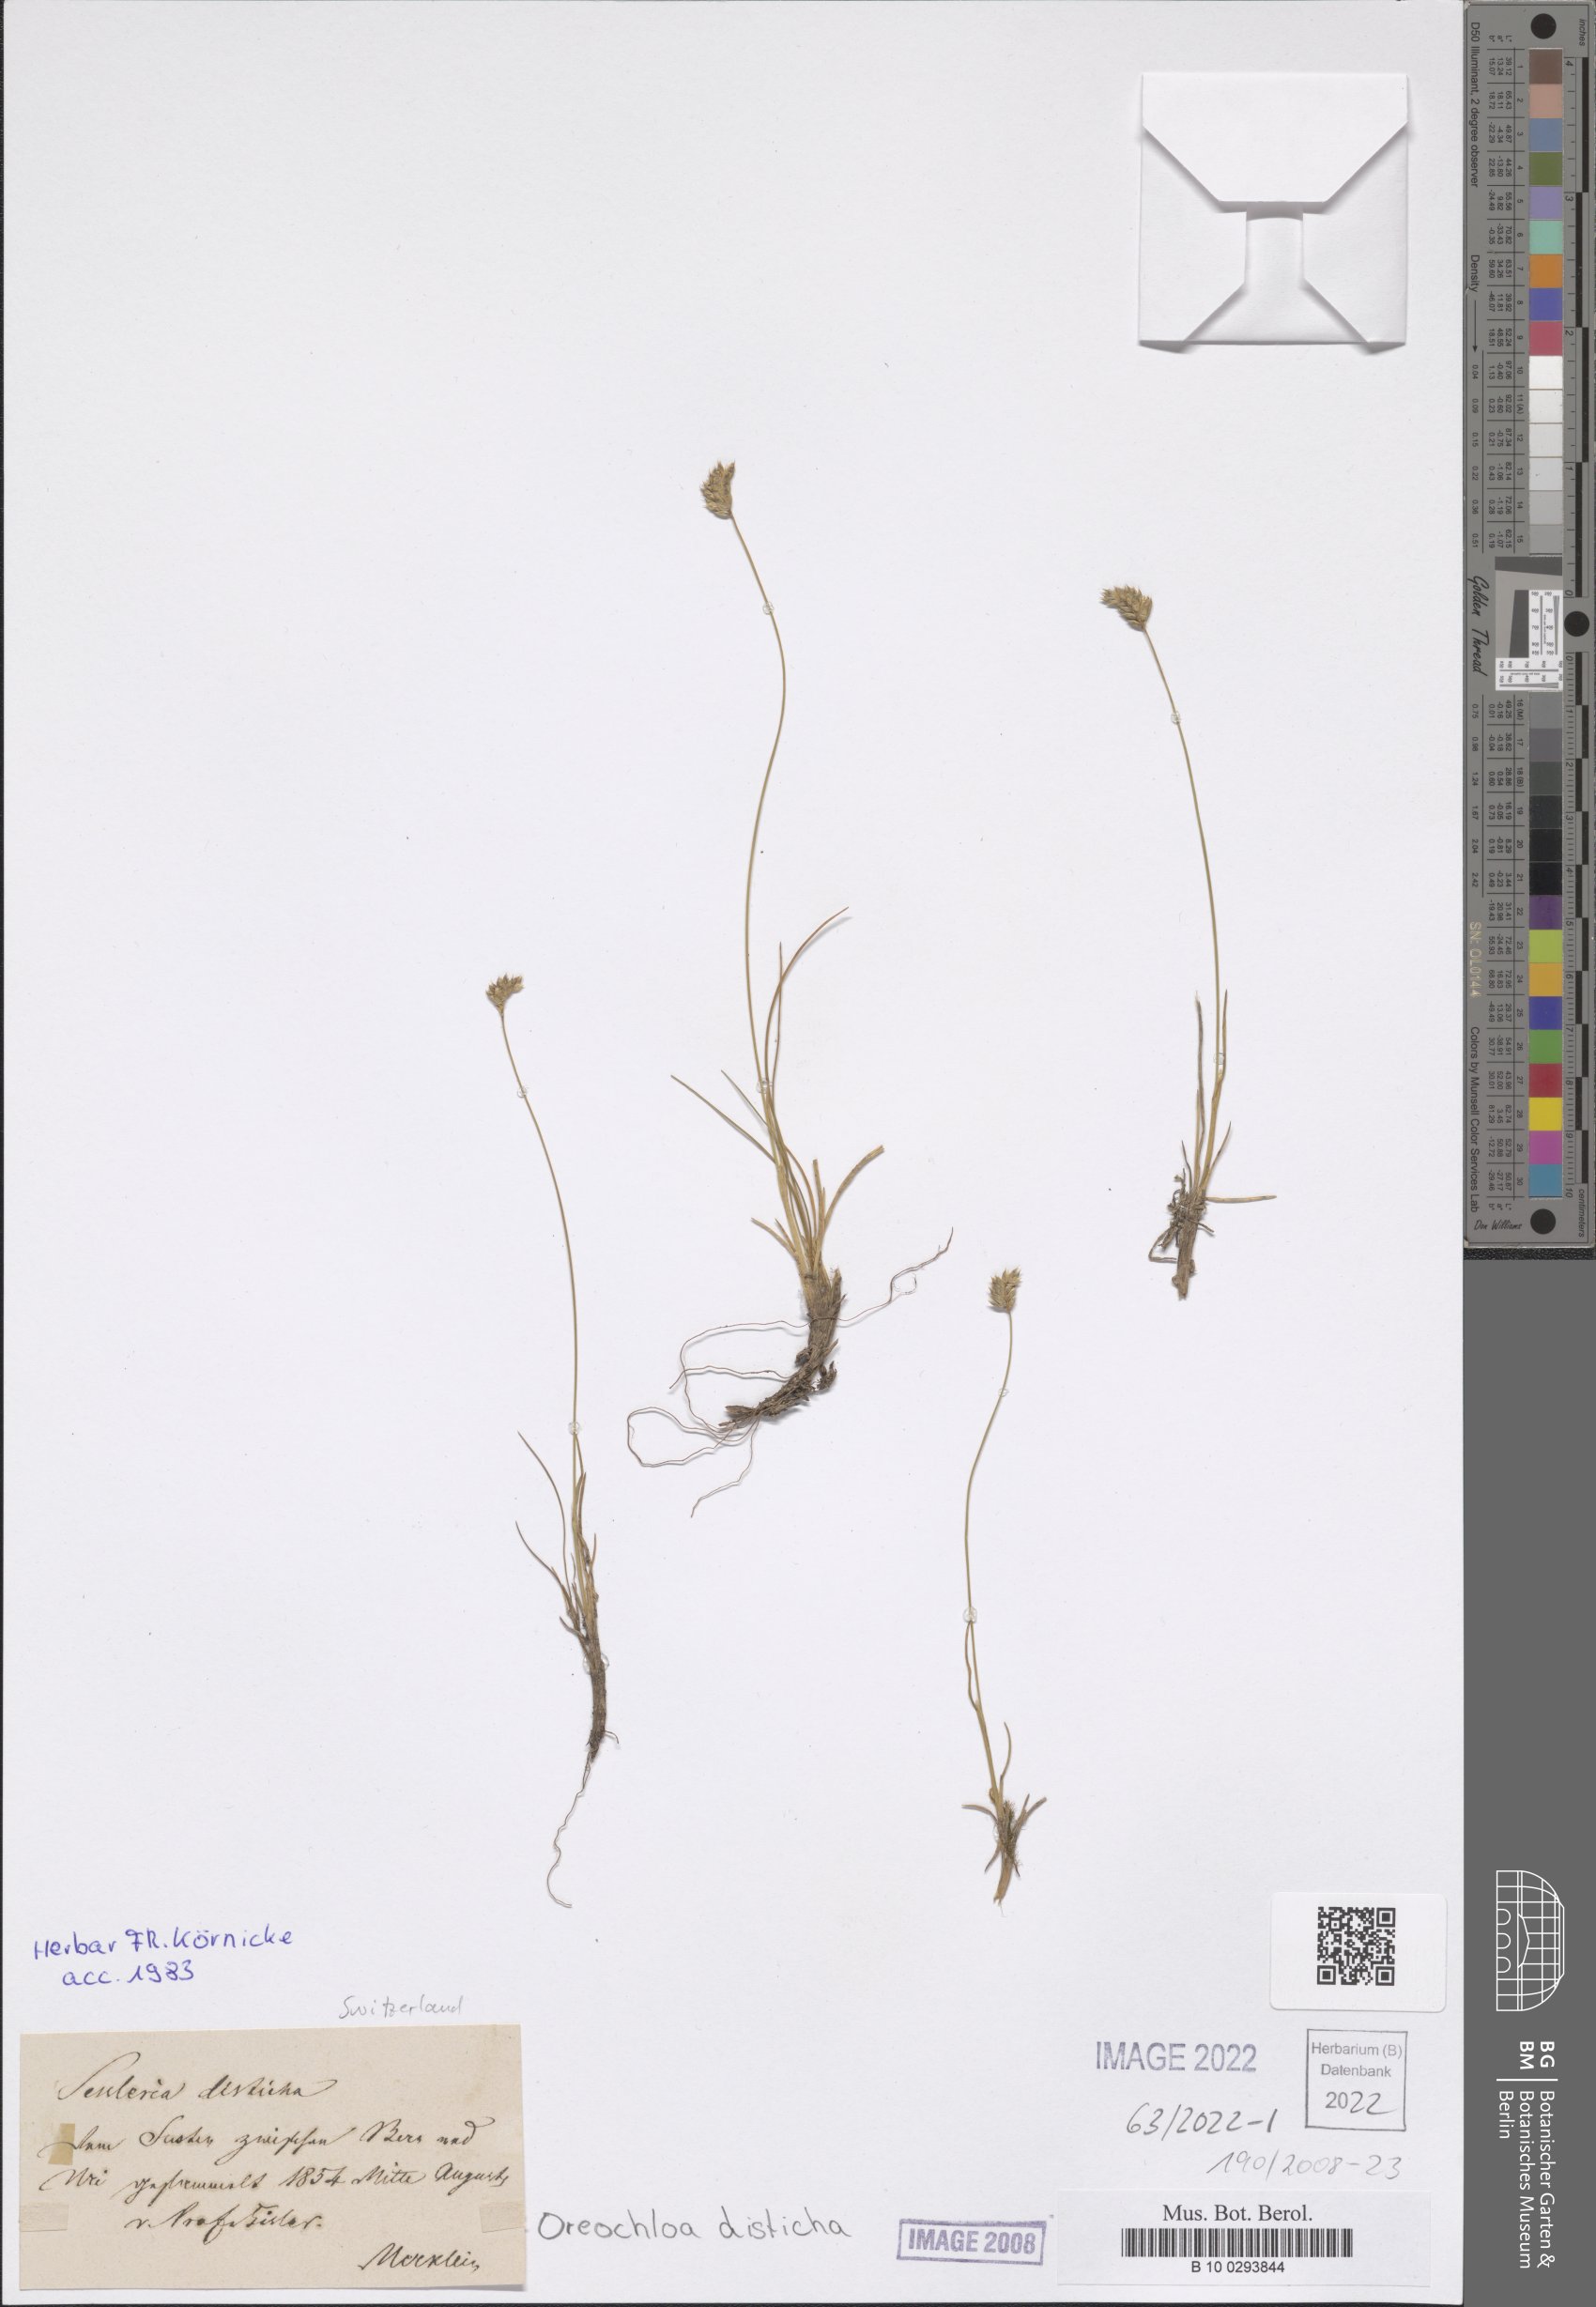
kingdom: Plantae
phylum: Tracheophyta
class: Liliopsida
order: Poales
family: Poaceae
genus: Oreochloa
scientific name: Oreochloa disticha
